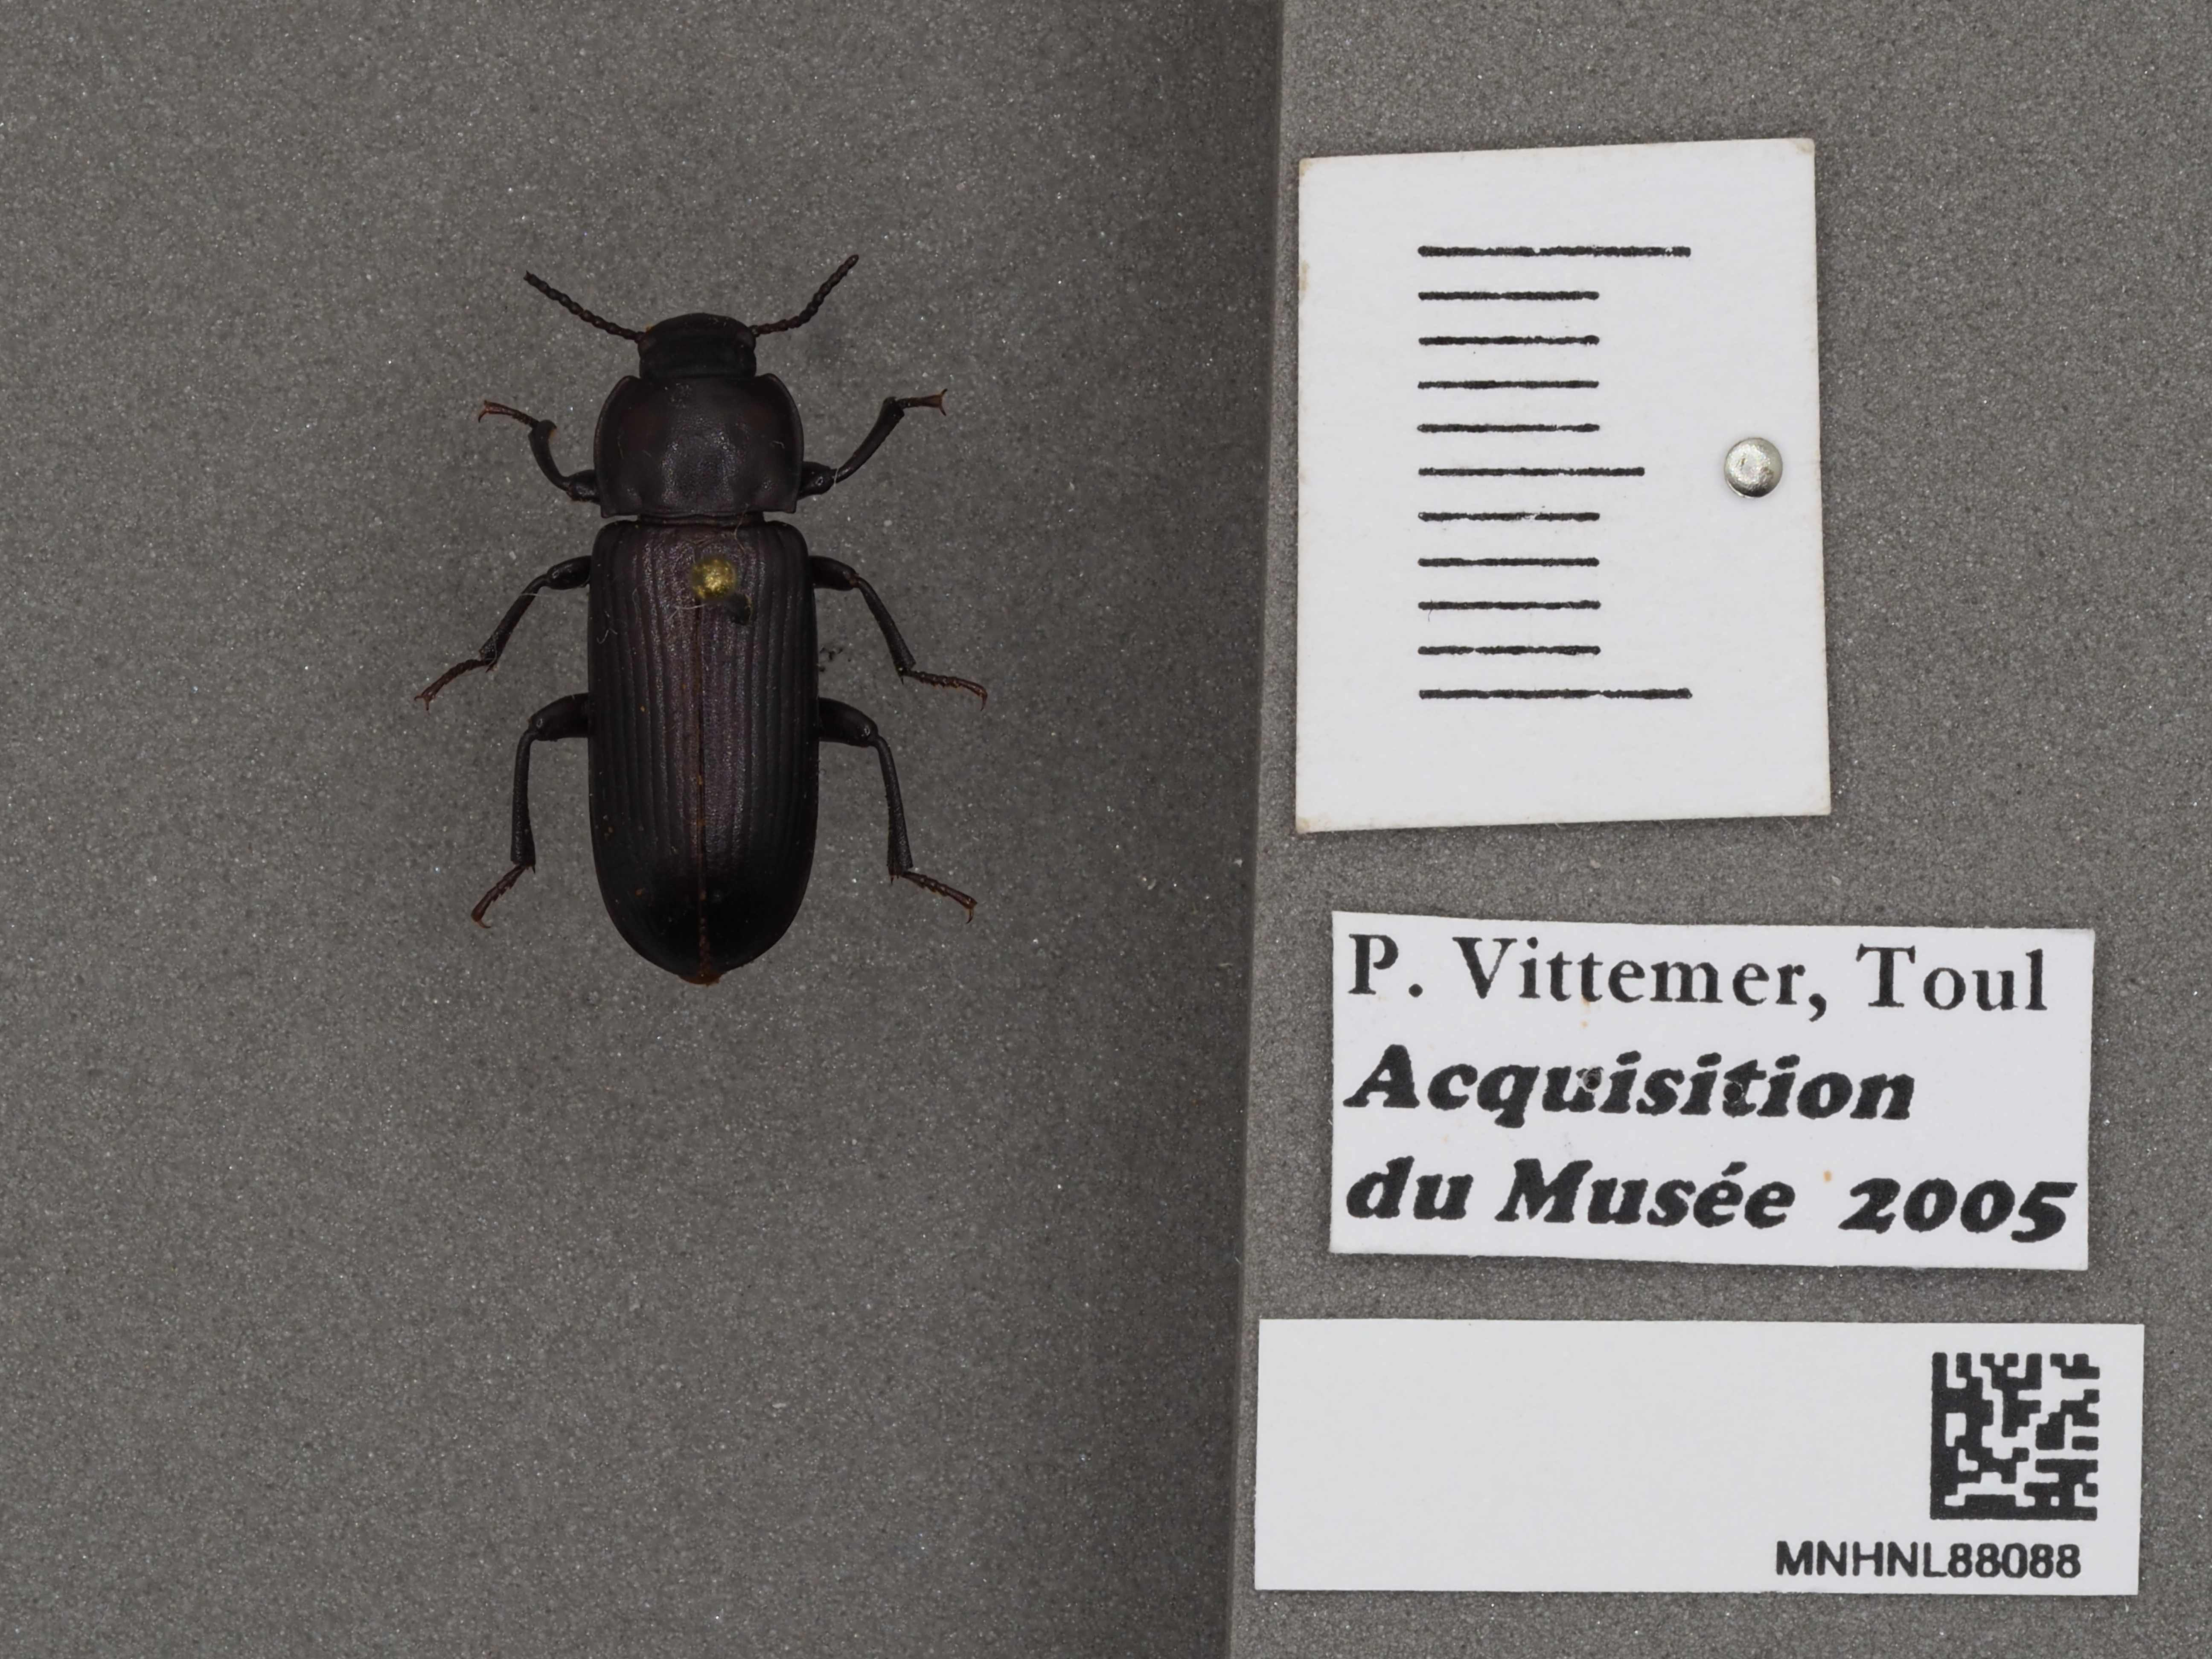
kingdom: Animalia
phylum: Arthropoda
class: Insecta
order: Coleoptera
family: Tenebrionidae
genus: Tenebrio
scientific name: Tenebrio molitor
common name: Hardback beetle
